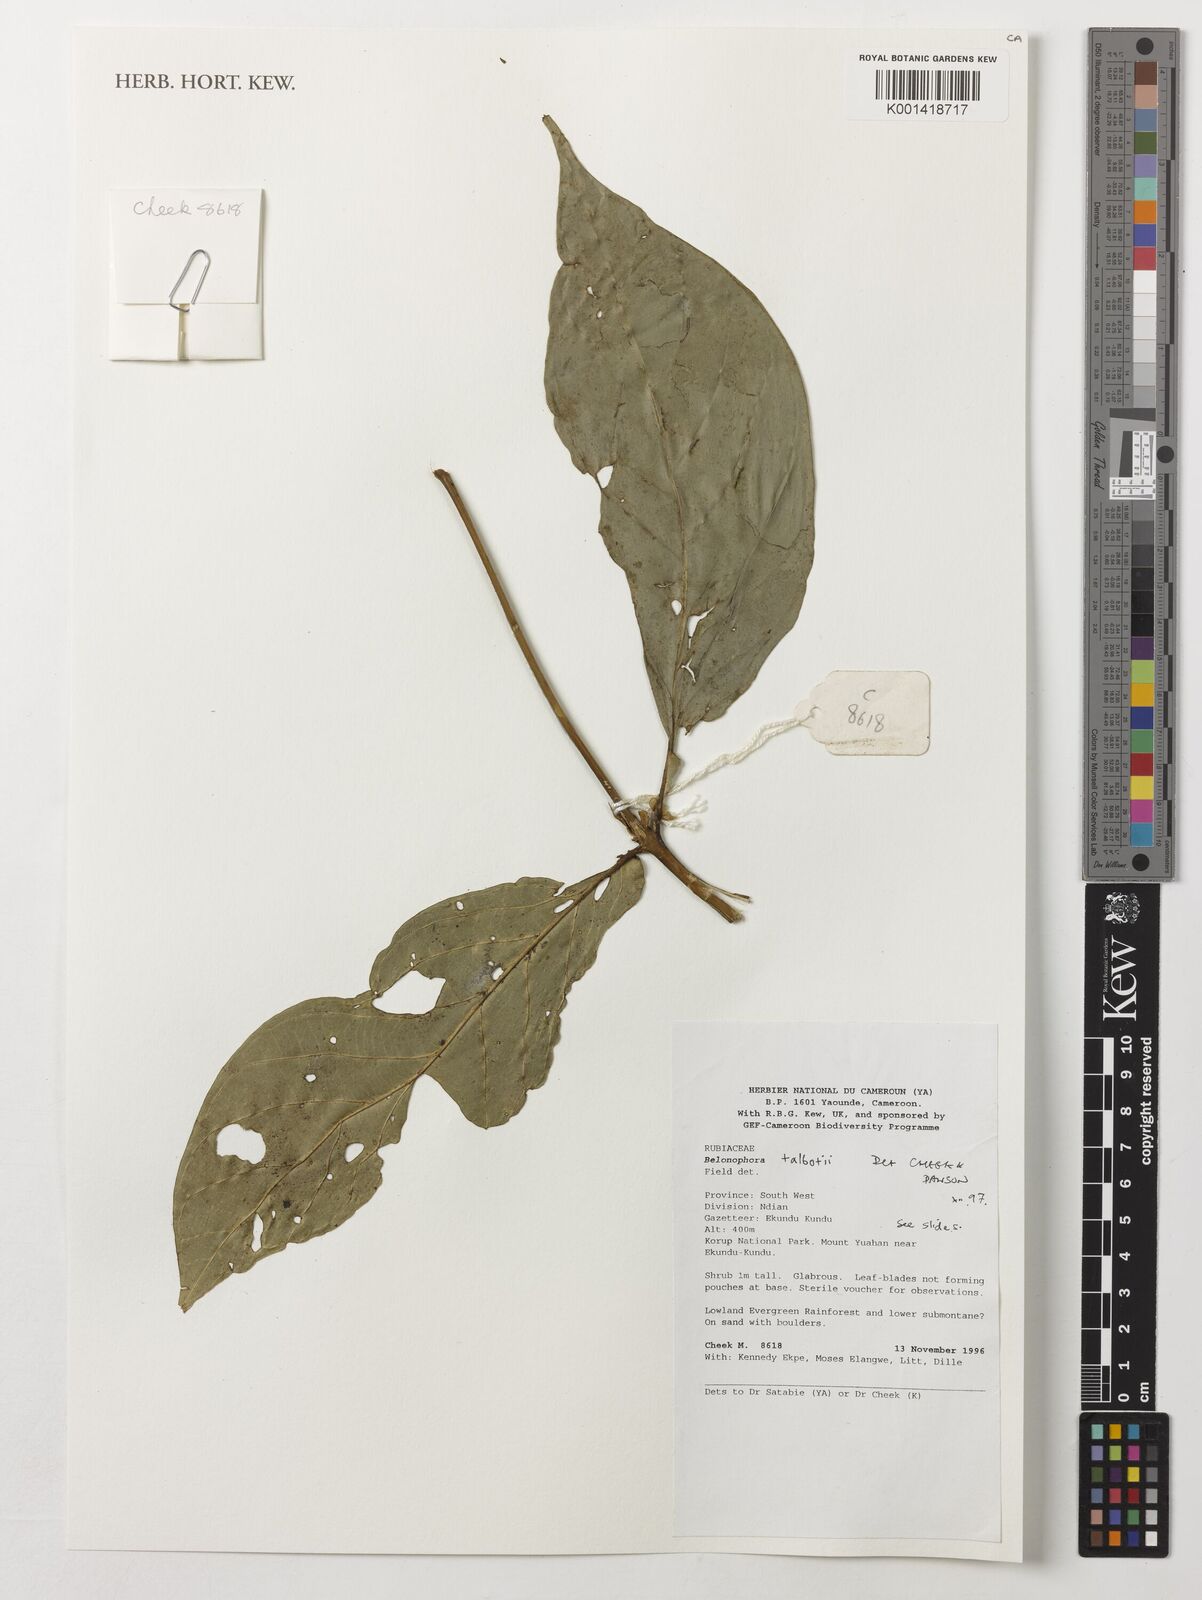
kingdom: Plantae
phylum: Tracheophyta
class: Magnoliopsida
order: Gentianales
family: Rubiaceae
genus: Belonophora
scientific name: Belonophora talbotii
